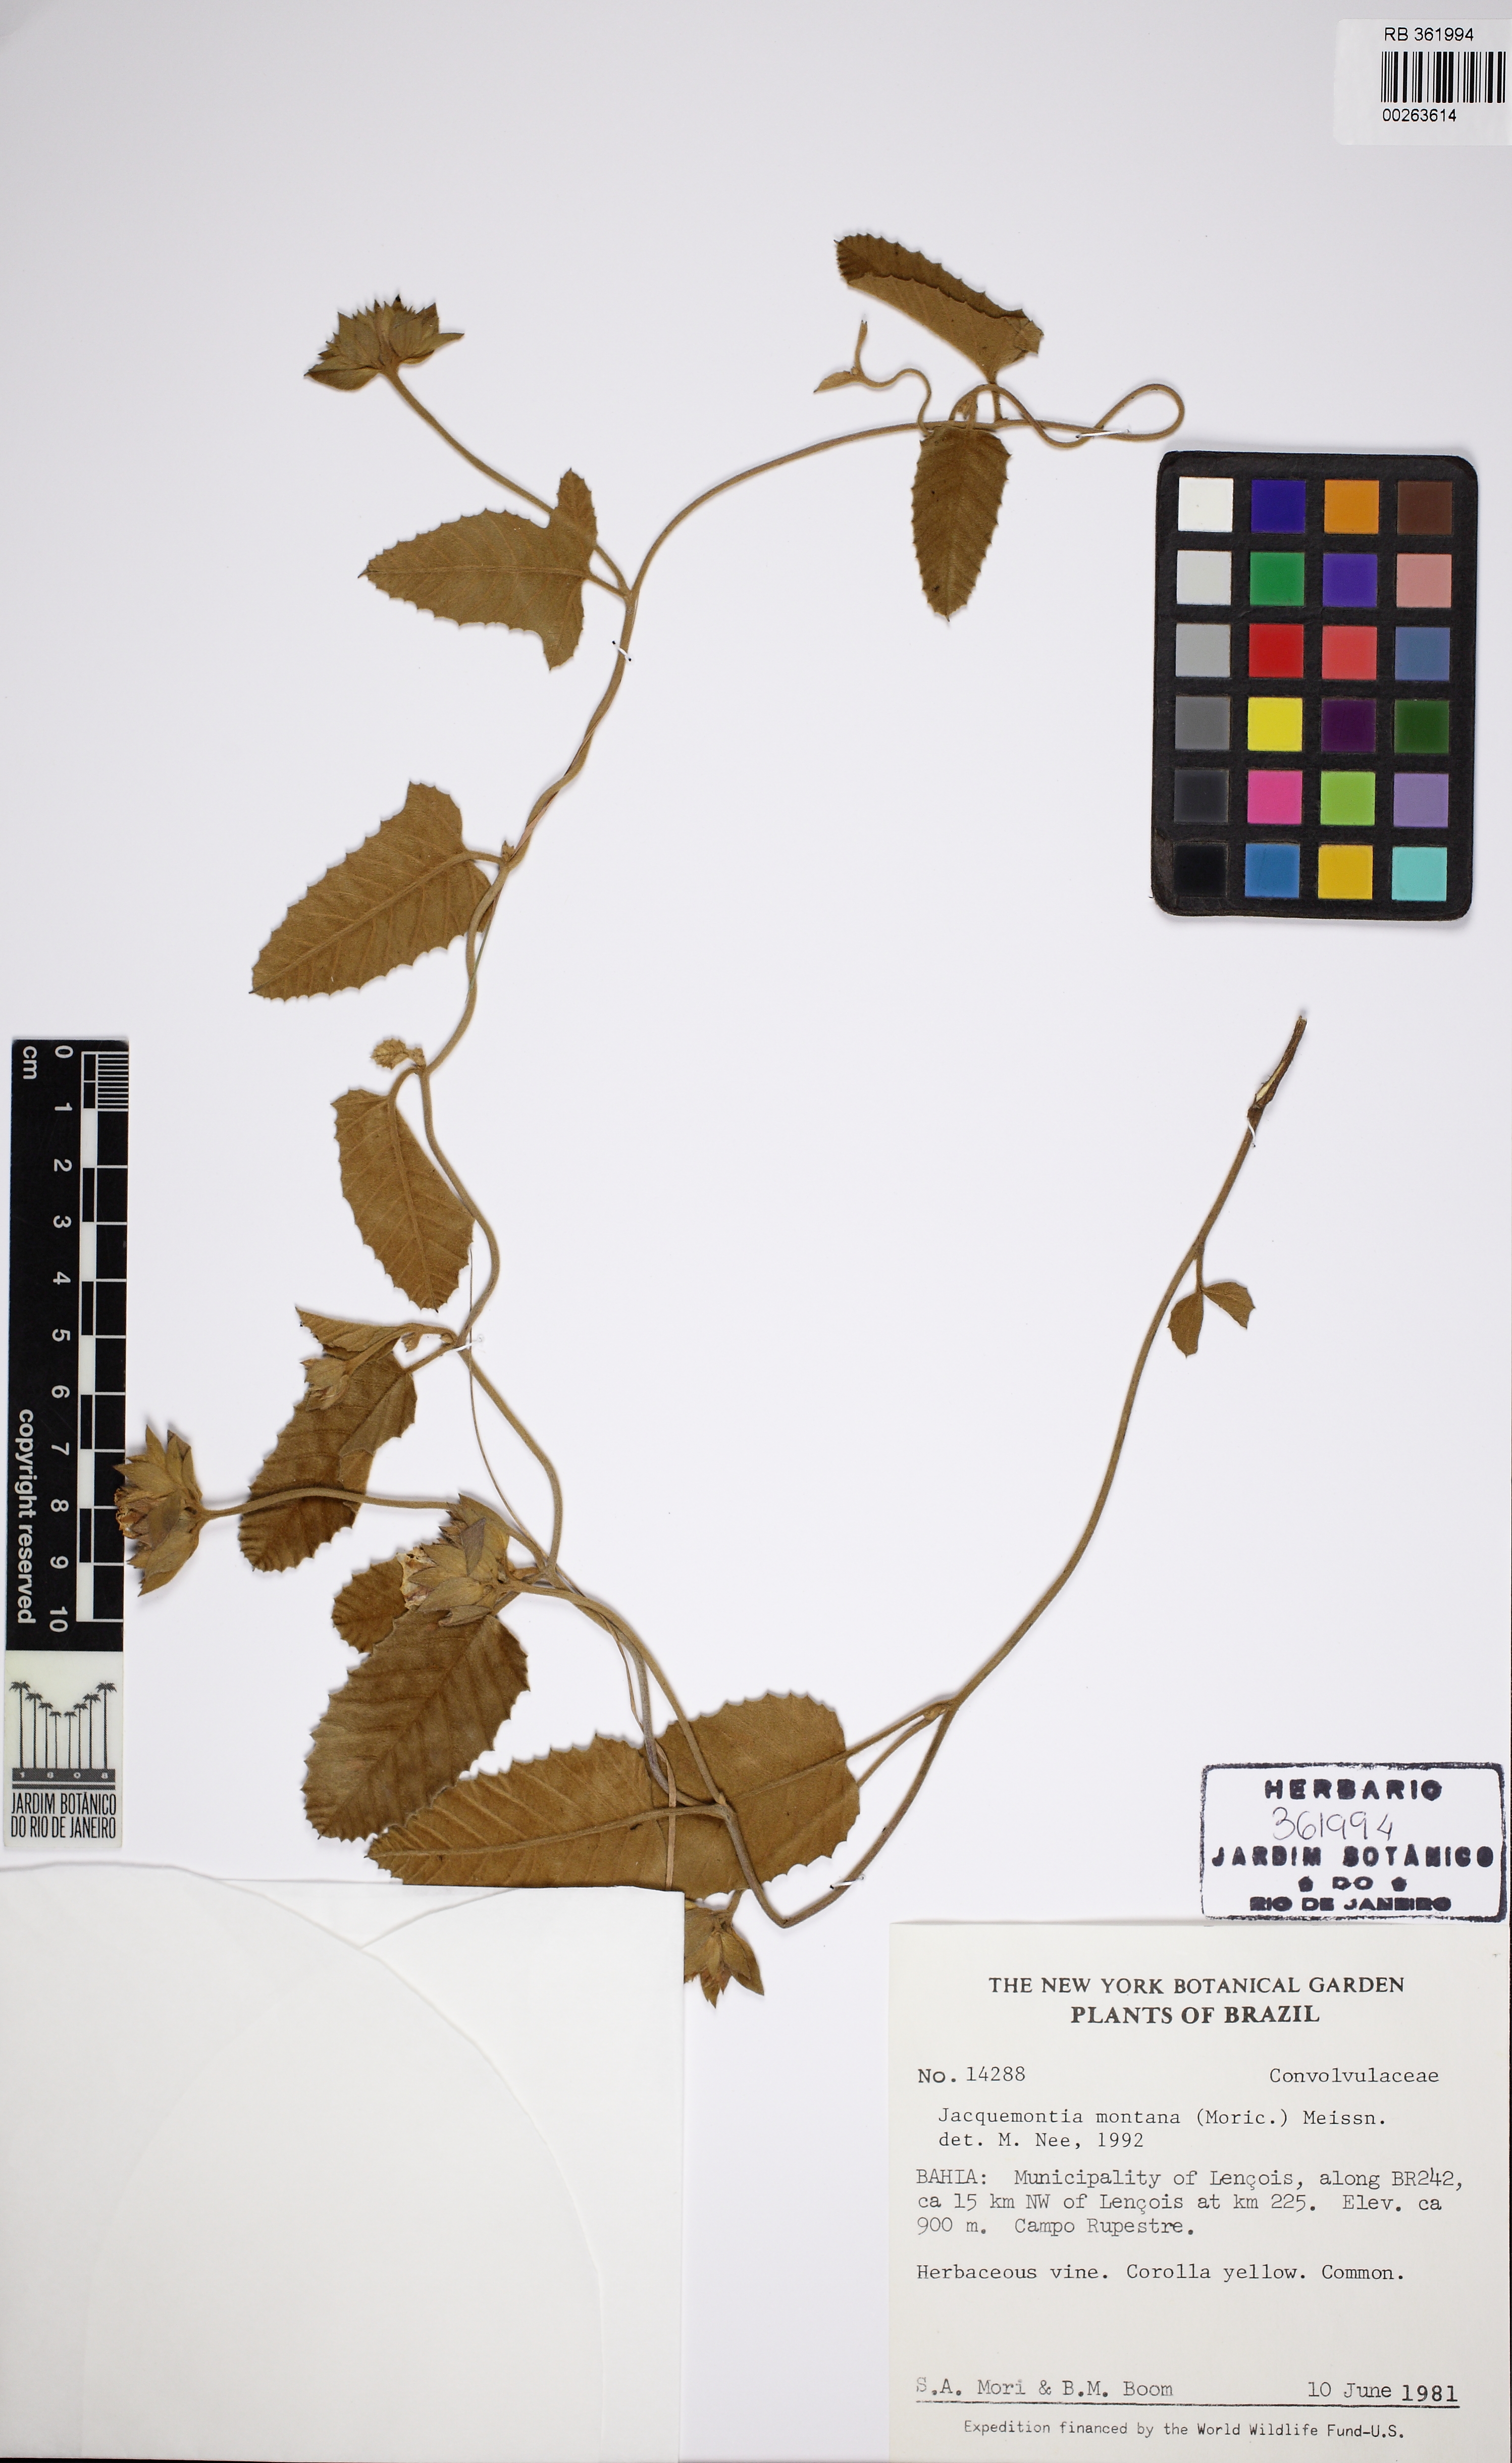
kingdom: Plantae
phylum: Tracheophyta
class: Magnoliopsida
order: Solanales
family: Convolvulaceae
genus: Daustinia
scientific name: Daustinia montana
